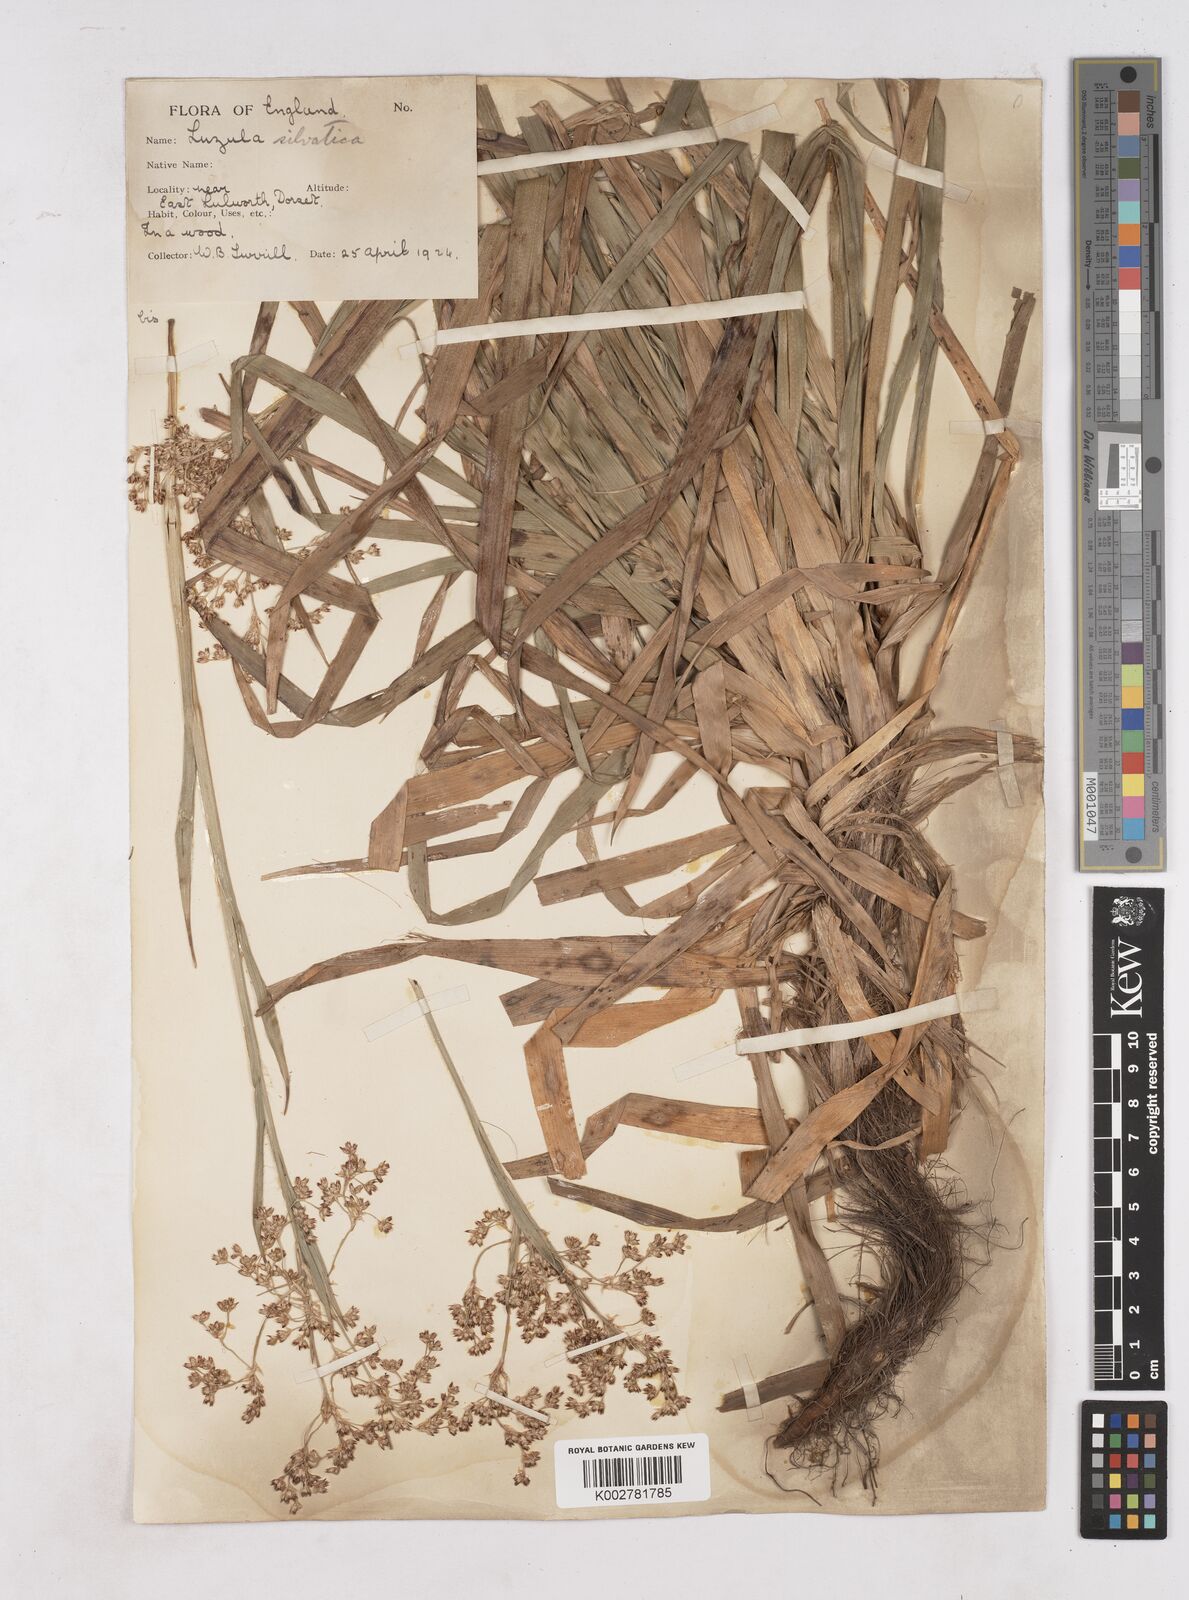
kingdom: Plantae
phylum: Tracheophyta
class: Liliopsida
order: Poales
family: Juncaceae
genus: Luzula
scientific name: Luzula sylvatica
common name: Great wood-rush
